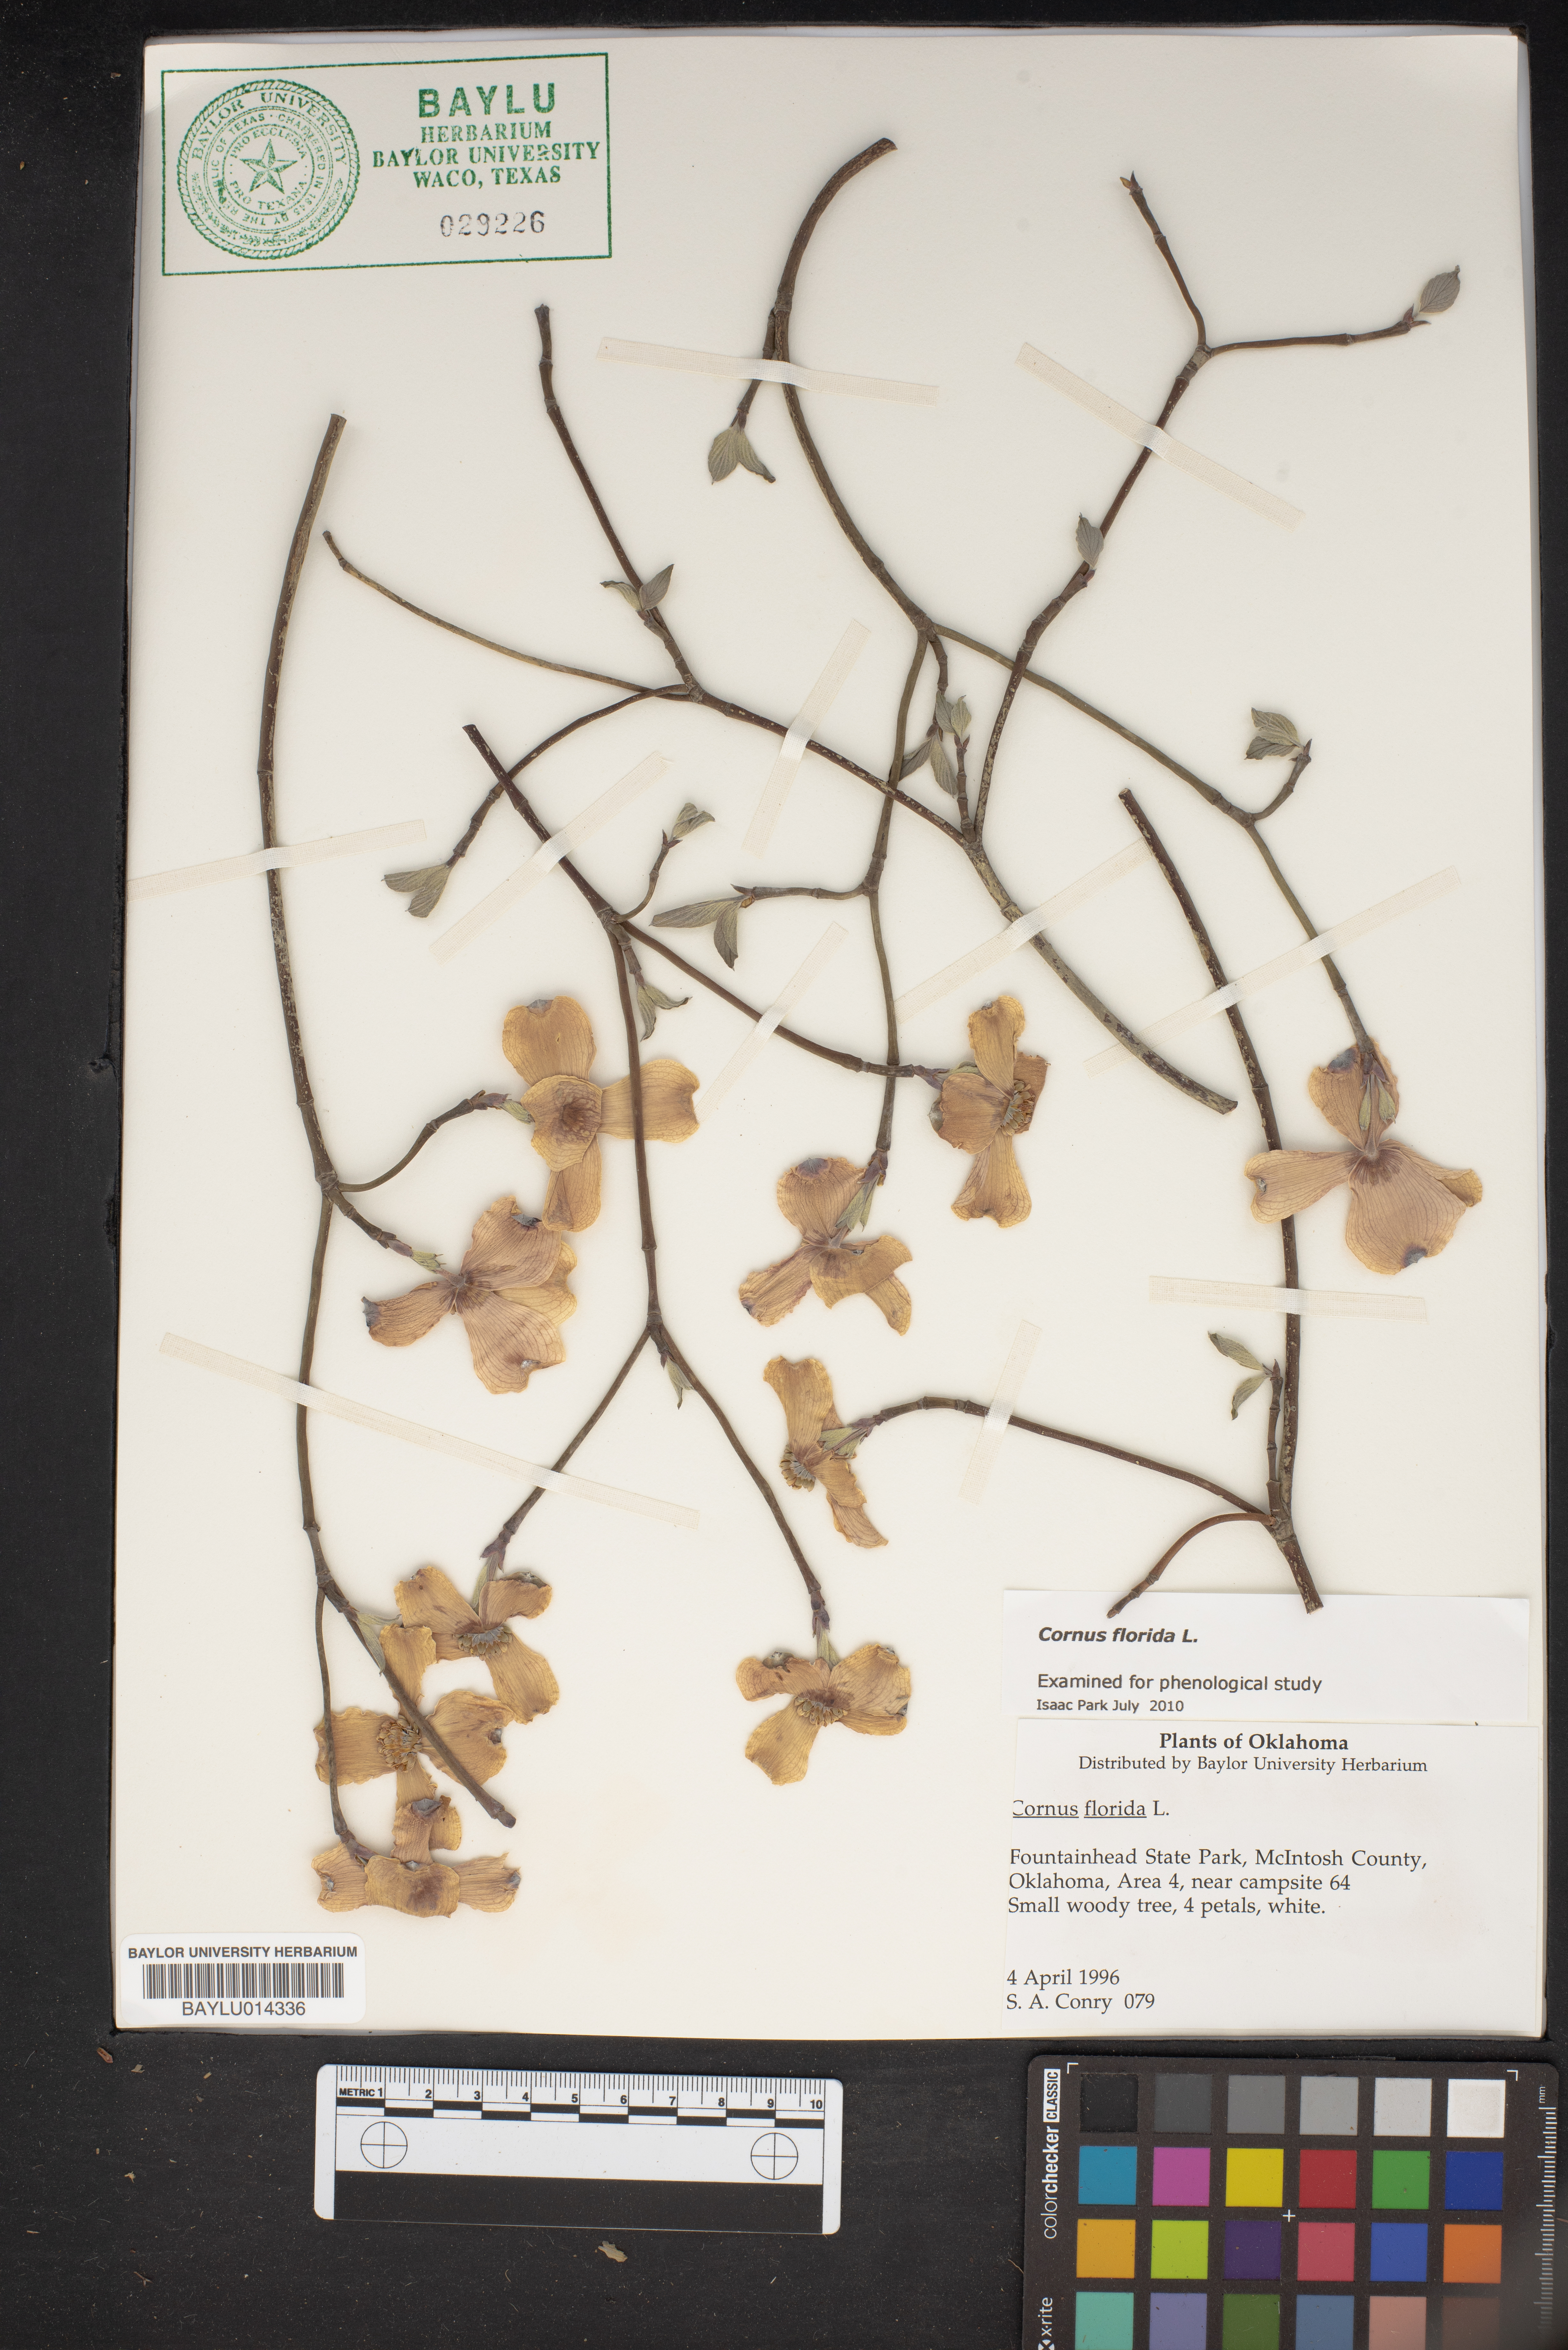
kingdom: Plantae
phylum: Tracheophyta
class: Magnoliopsida
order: Cornales
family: Cornaceae
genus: Cornus
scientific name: Cornus florida
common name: Flowering dogwood
